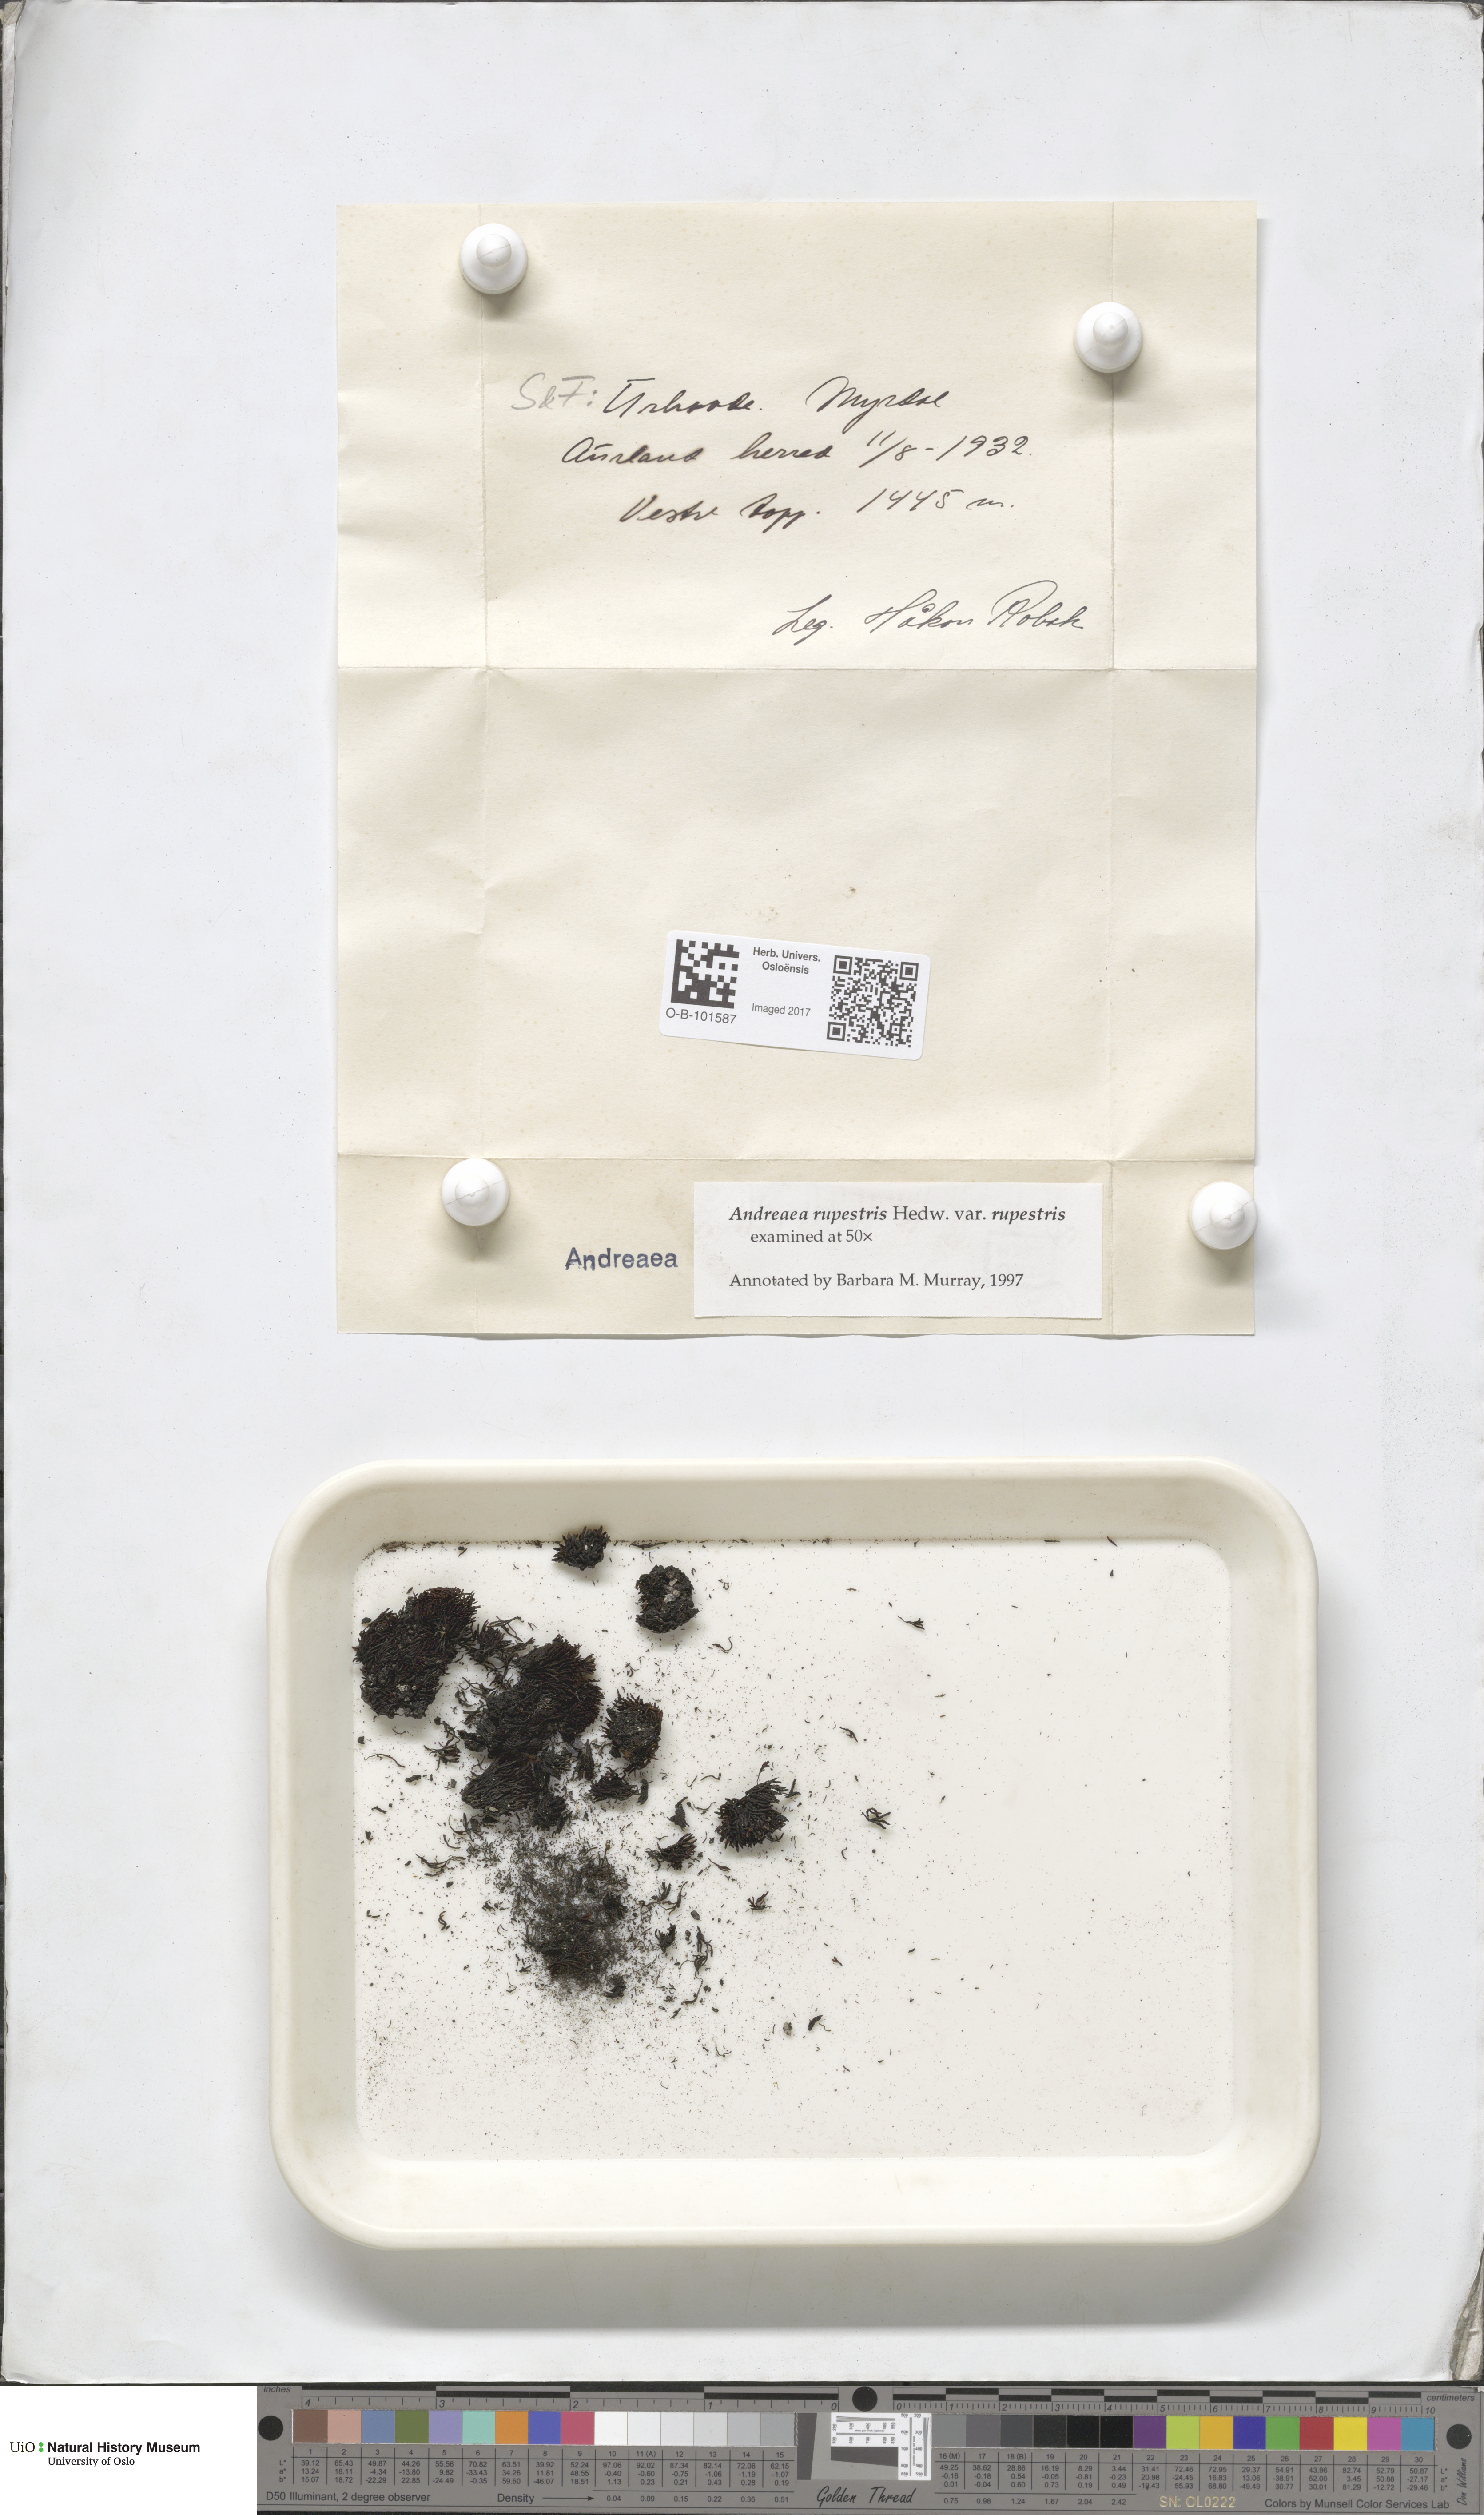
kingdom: Plantae
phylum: Bryophyta
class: Andreaeopsida
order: Andreaeales
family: Andreaeaceae
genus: Andreaea
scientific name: Andreaea rupestris
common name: Black rock moss
